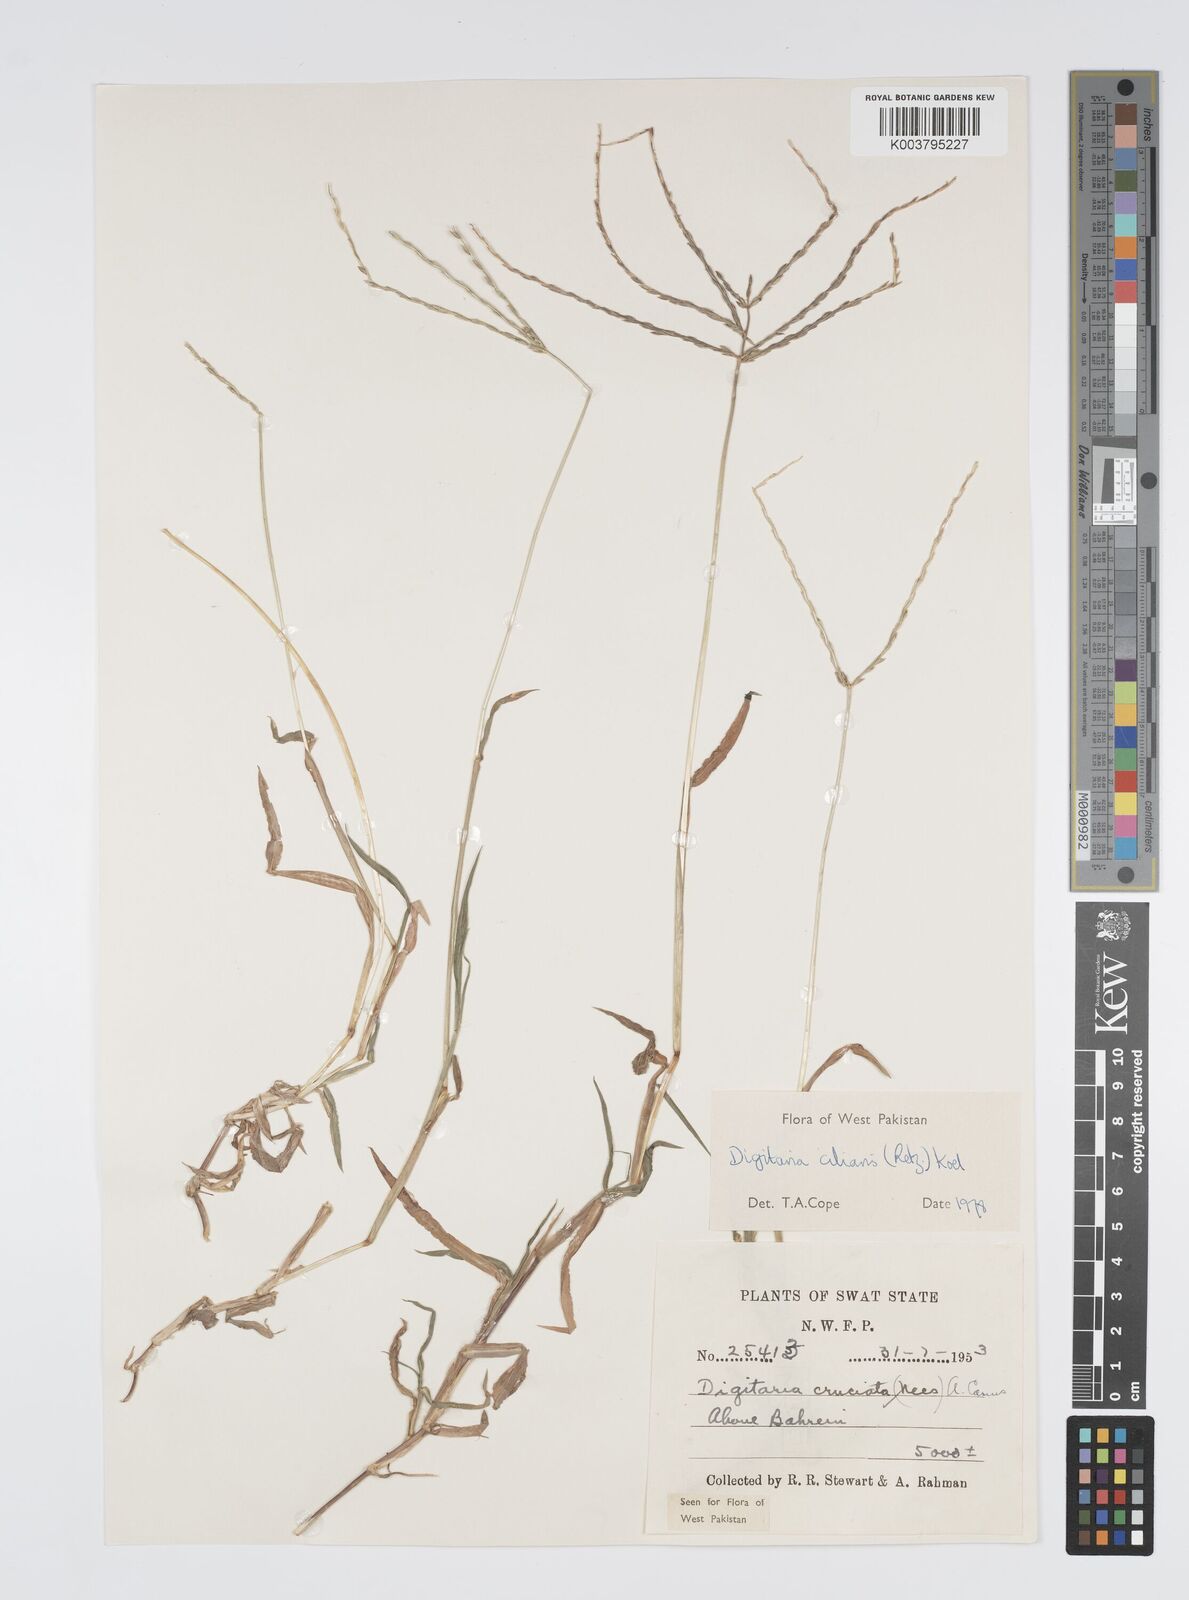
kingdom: Plantae
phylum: Tracheophyta
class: Liliopsida
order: Poales
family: Poaceae
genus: Digitaria
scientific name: Digitaria ciliaris
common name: Tropical finger-grass
